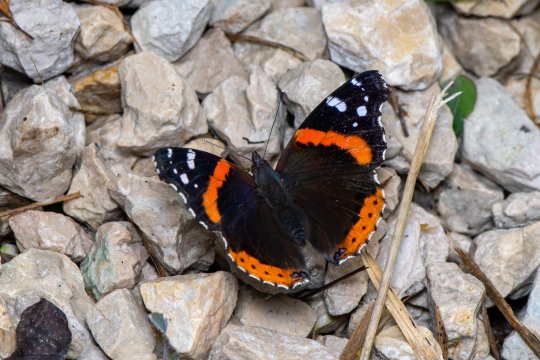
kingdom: Animalia
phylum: Arthropoda
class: Insecta
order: Lepidoptera
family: Nymphalidae
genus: Vanessa
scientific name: Vanessa atalanta
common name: Red Admiral
